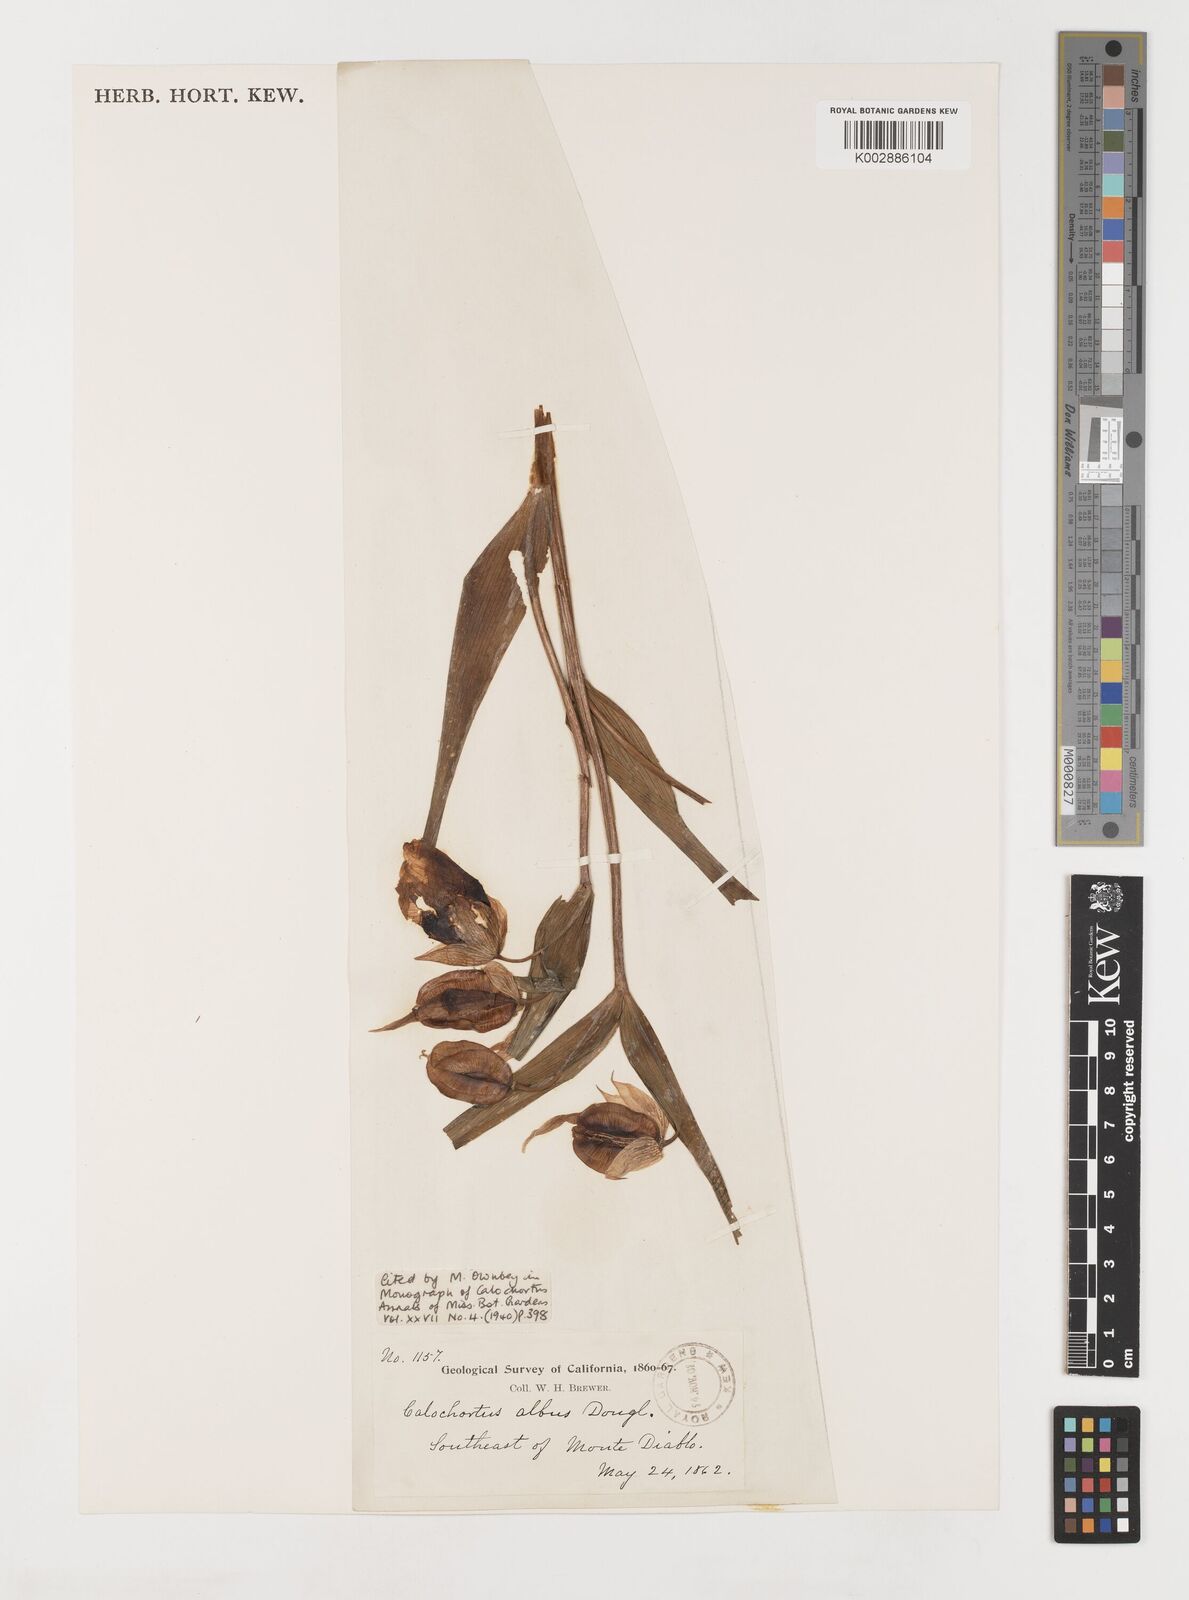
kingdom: Plantae
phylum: Tracheophyta
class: Liliopsida
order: Liliales
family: Liliaceae
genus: Calochortus
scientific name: Calochortus albus
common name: Fairy-lantern
